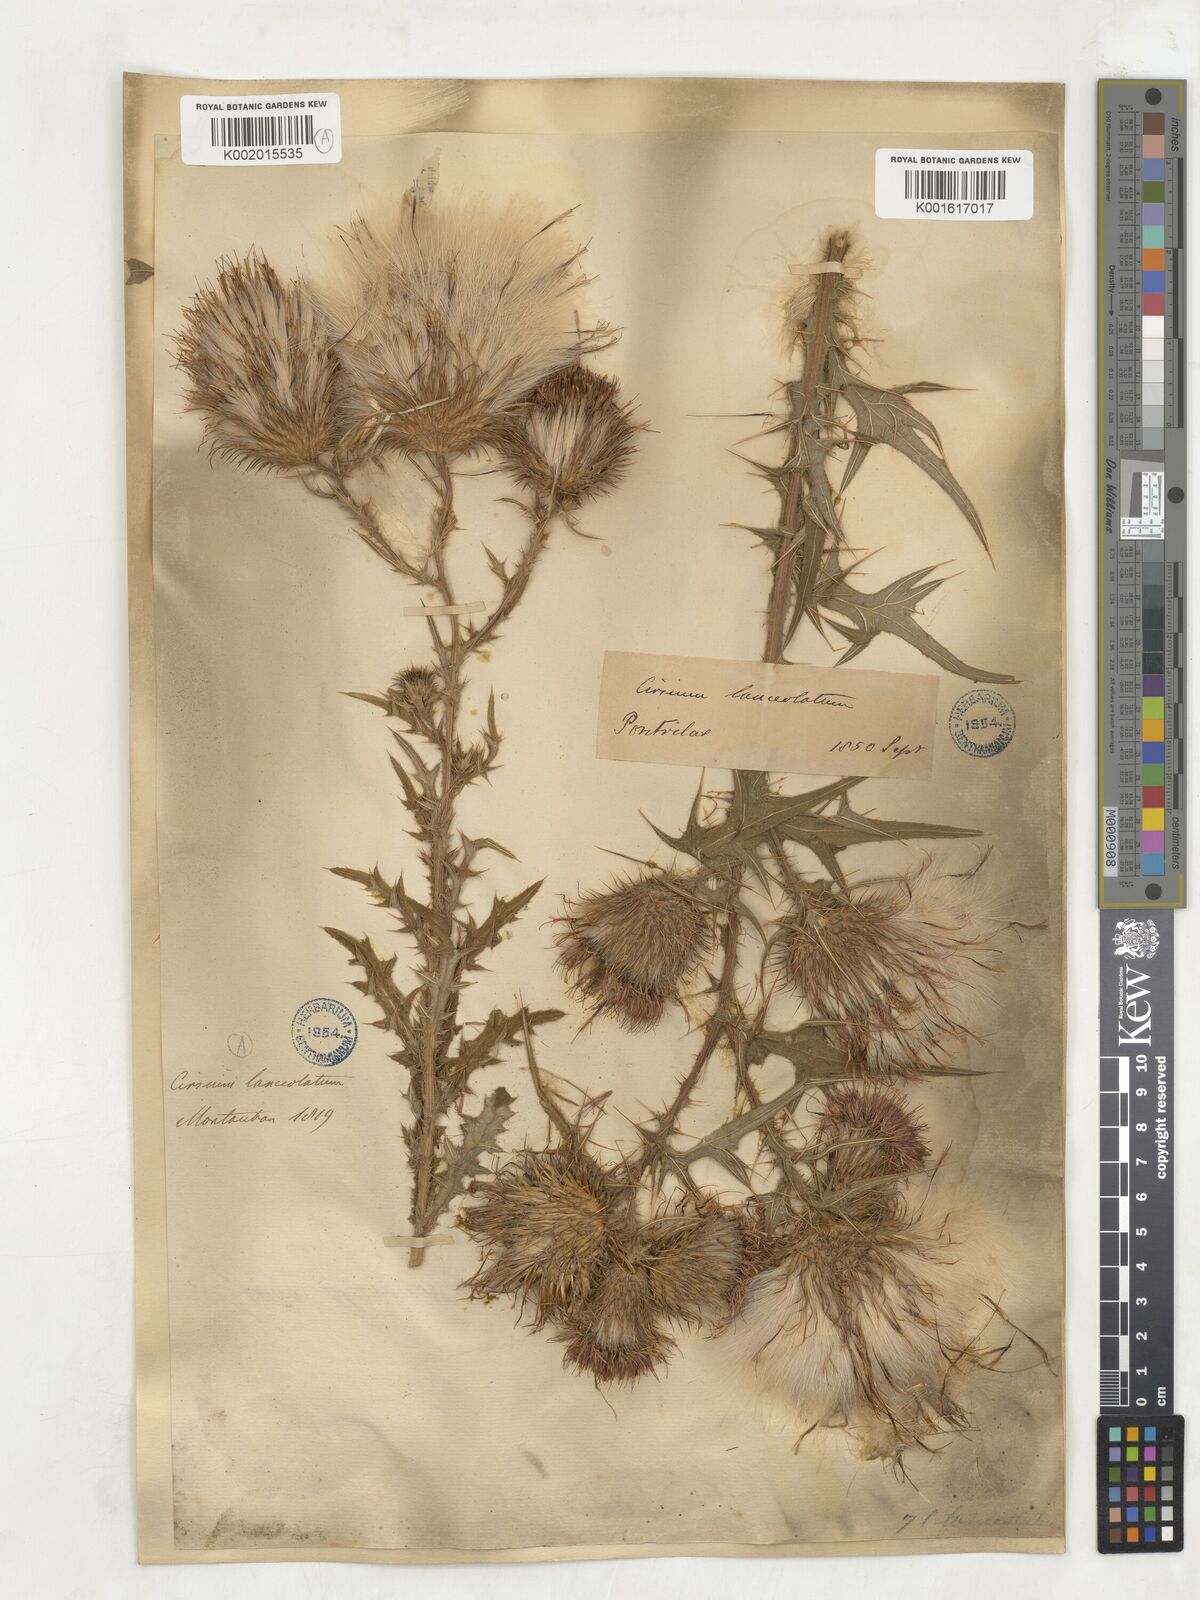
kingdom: Plantae
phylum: Tracheophyta
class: Magnoliopsida
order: Asterales
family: Asteraceae
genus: Cirsium
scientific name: Cirsium
